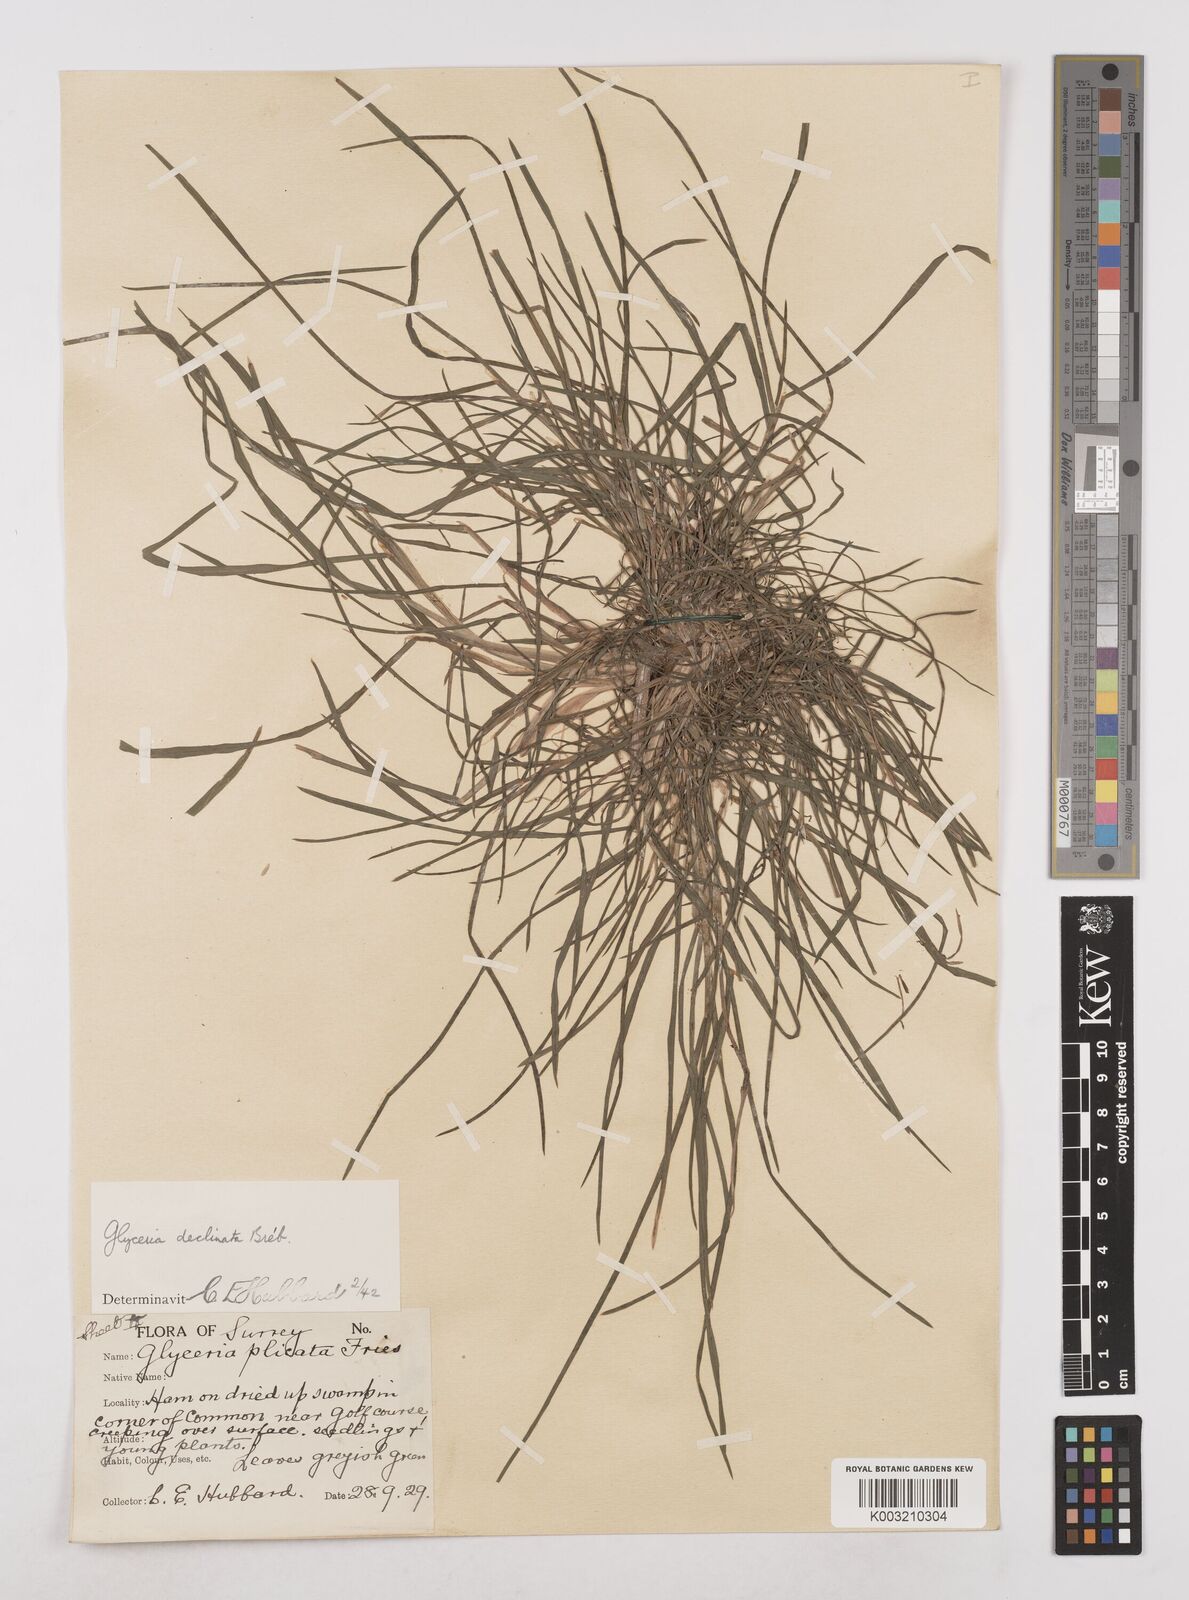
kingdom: Plantae
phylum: Tracheophyta
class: Liliopsida
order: Poales
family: Poaceae
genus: Glyceria
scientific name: Glyceria declinata
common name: Small sweet-grass
